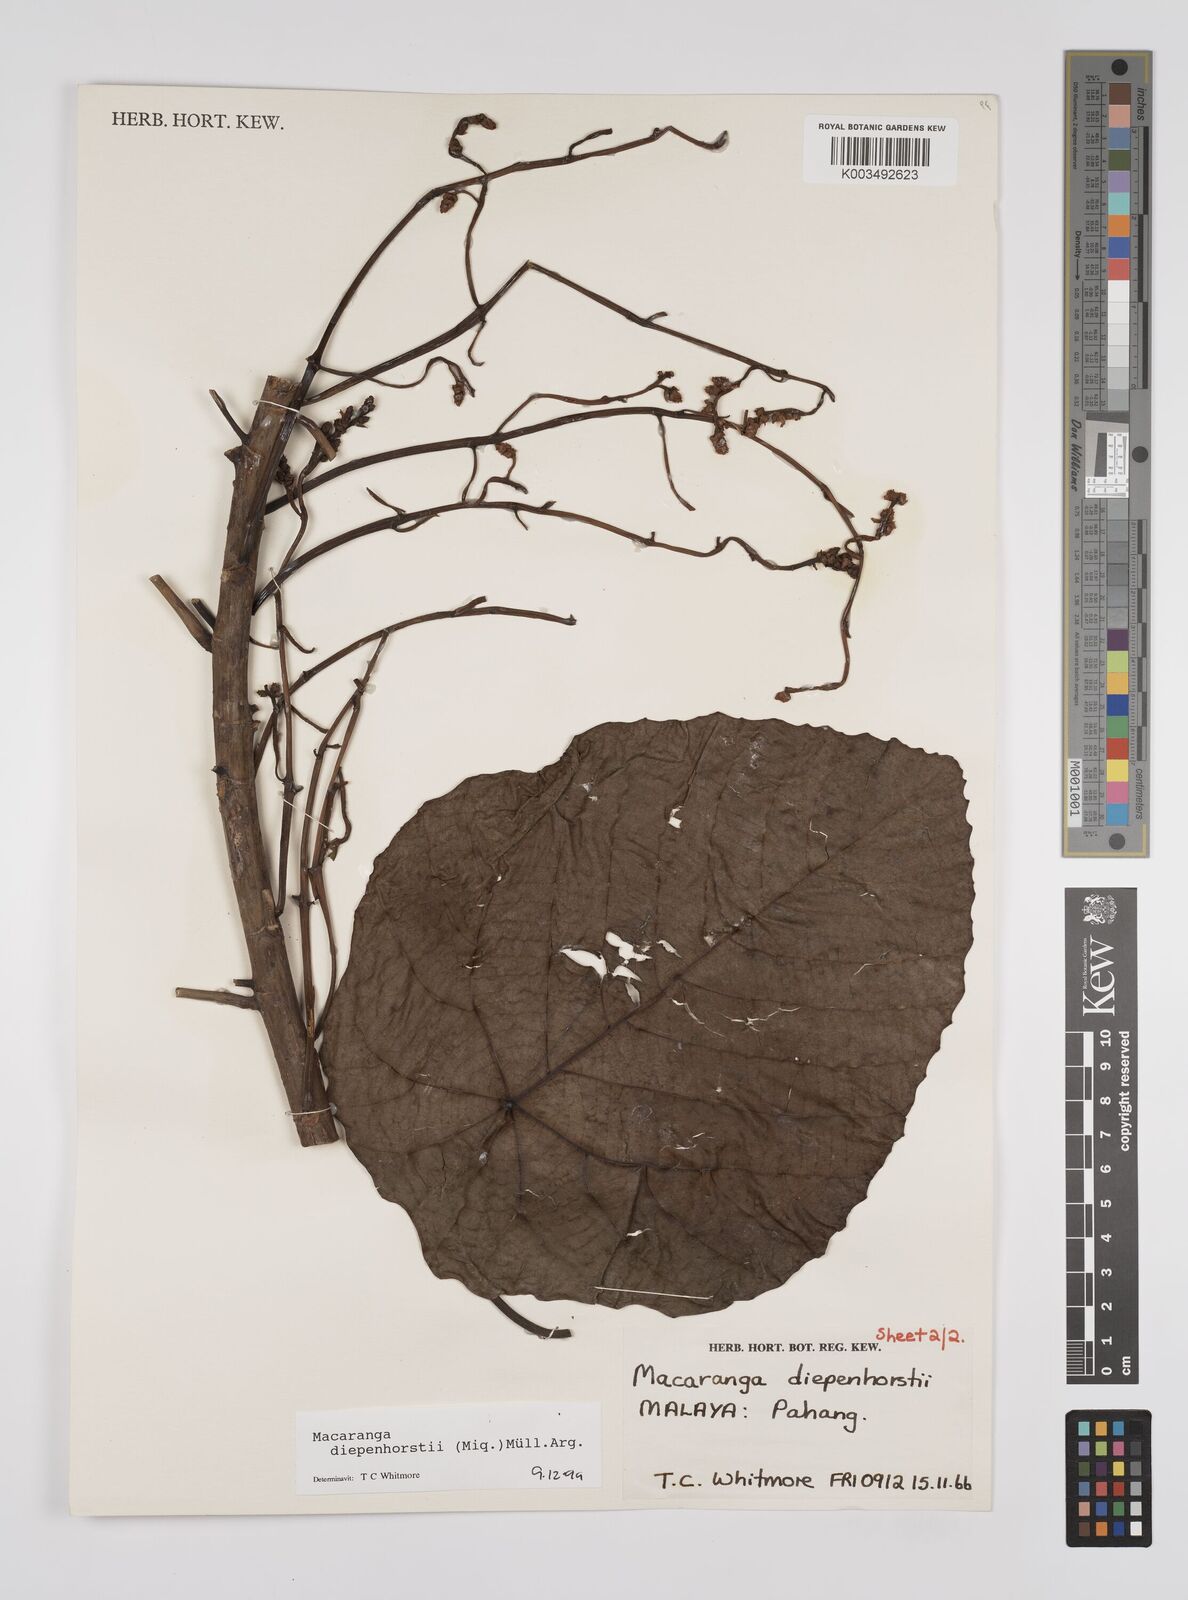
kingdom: Plantae
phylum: Tracheophyta
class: Magnoliopsida
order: Malpighiales
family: Euphorbiaceae
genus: Macaranga
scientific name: Macaranga diepenhorstii
